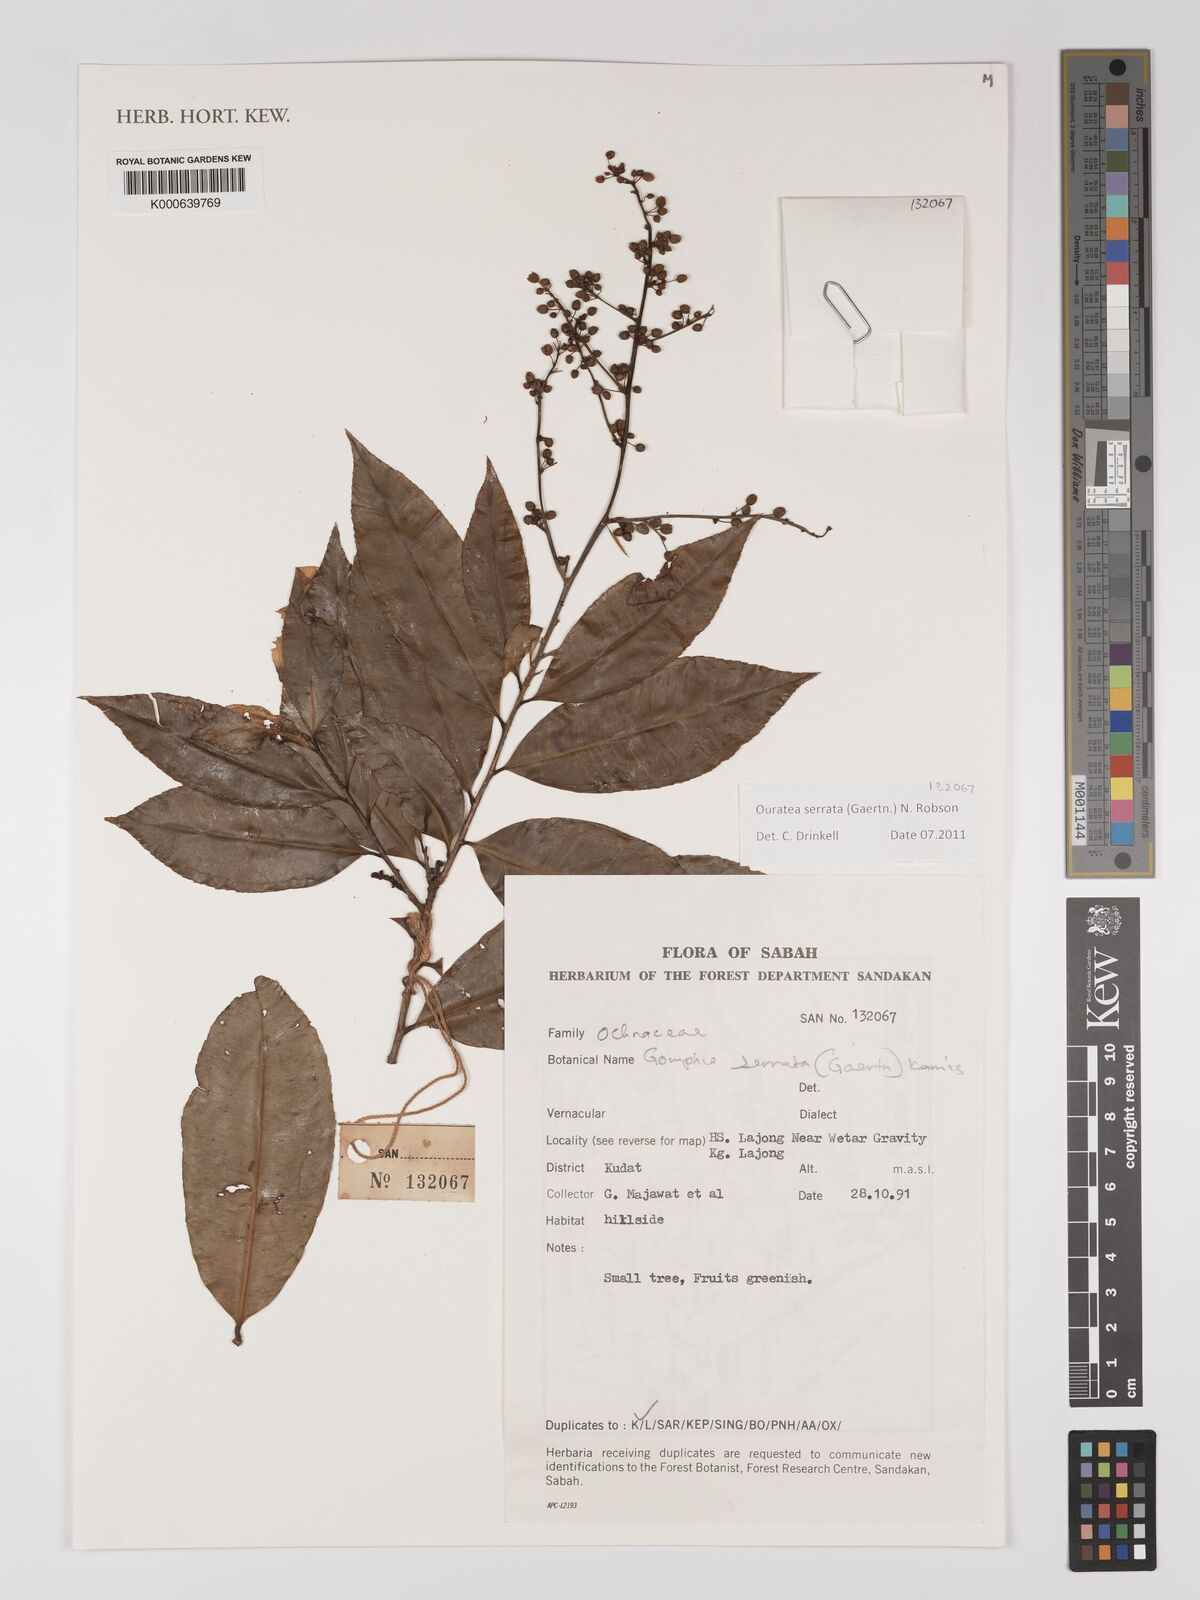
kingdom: Plantae
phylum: Tracheophyta
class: Magnoliopsida
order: Malpighiales
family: Ochnaceae
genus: Gomphia
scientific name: Gomphia serrata
